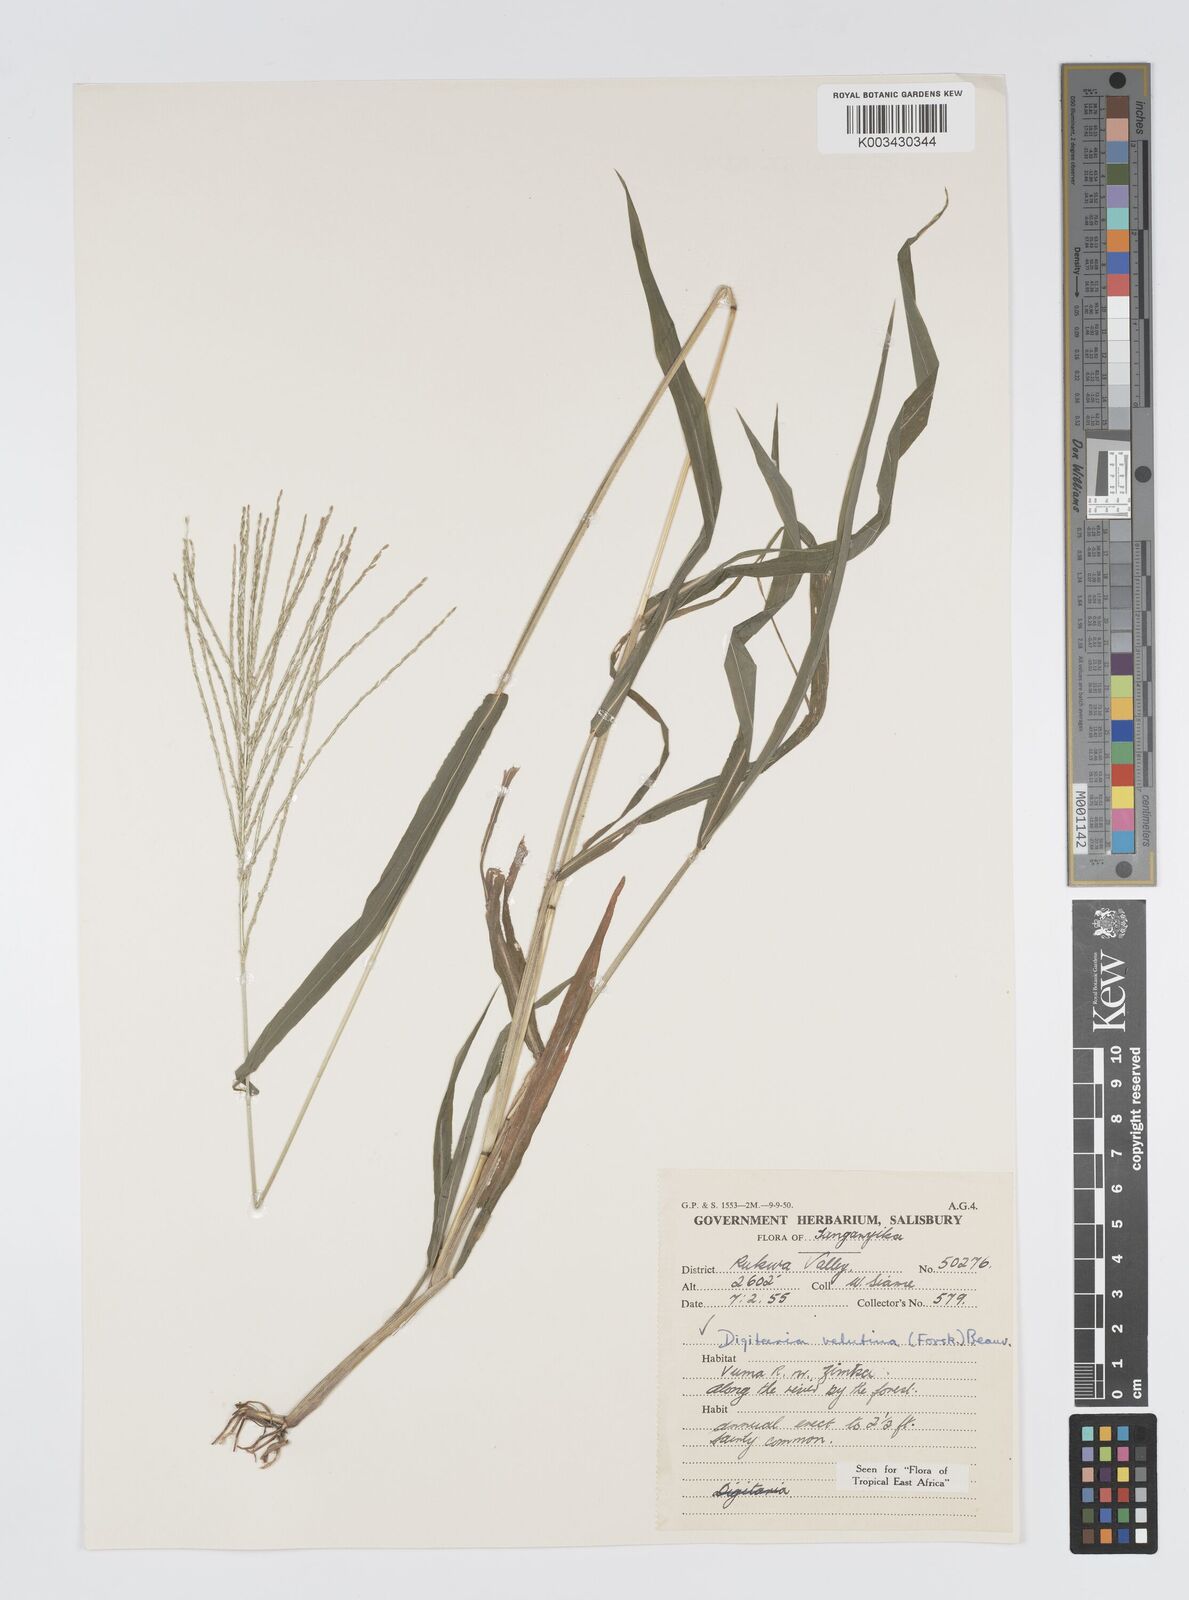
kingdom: Plantae
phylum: Tracheophyta
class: Liliopsida
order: Poales
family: Poaceae
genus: Digitaria
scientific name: Digitaria velutina
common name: Long-plume finger grass
